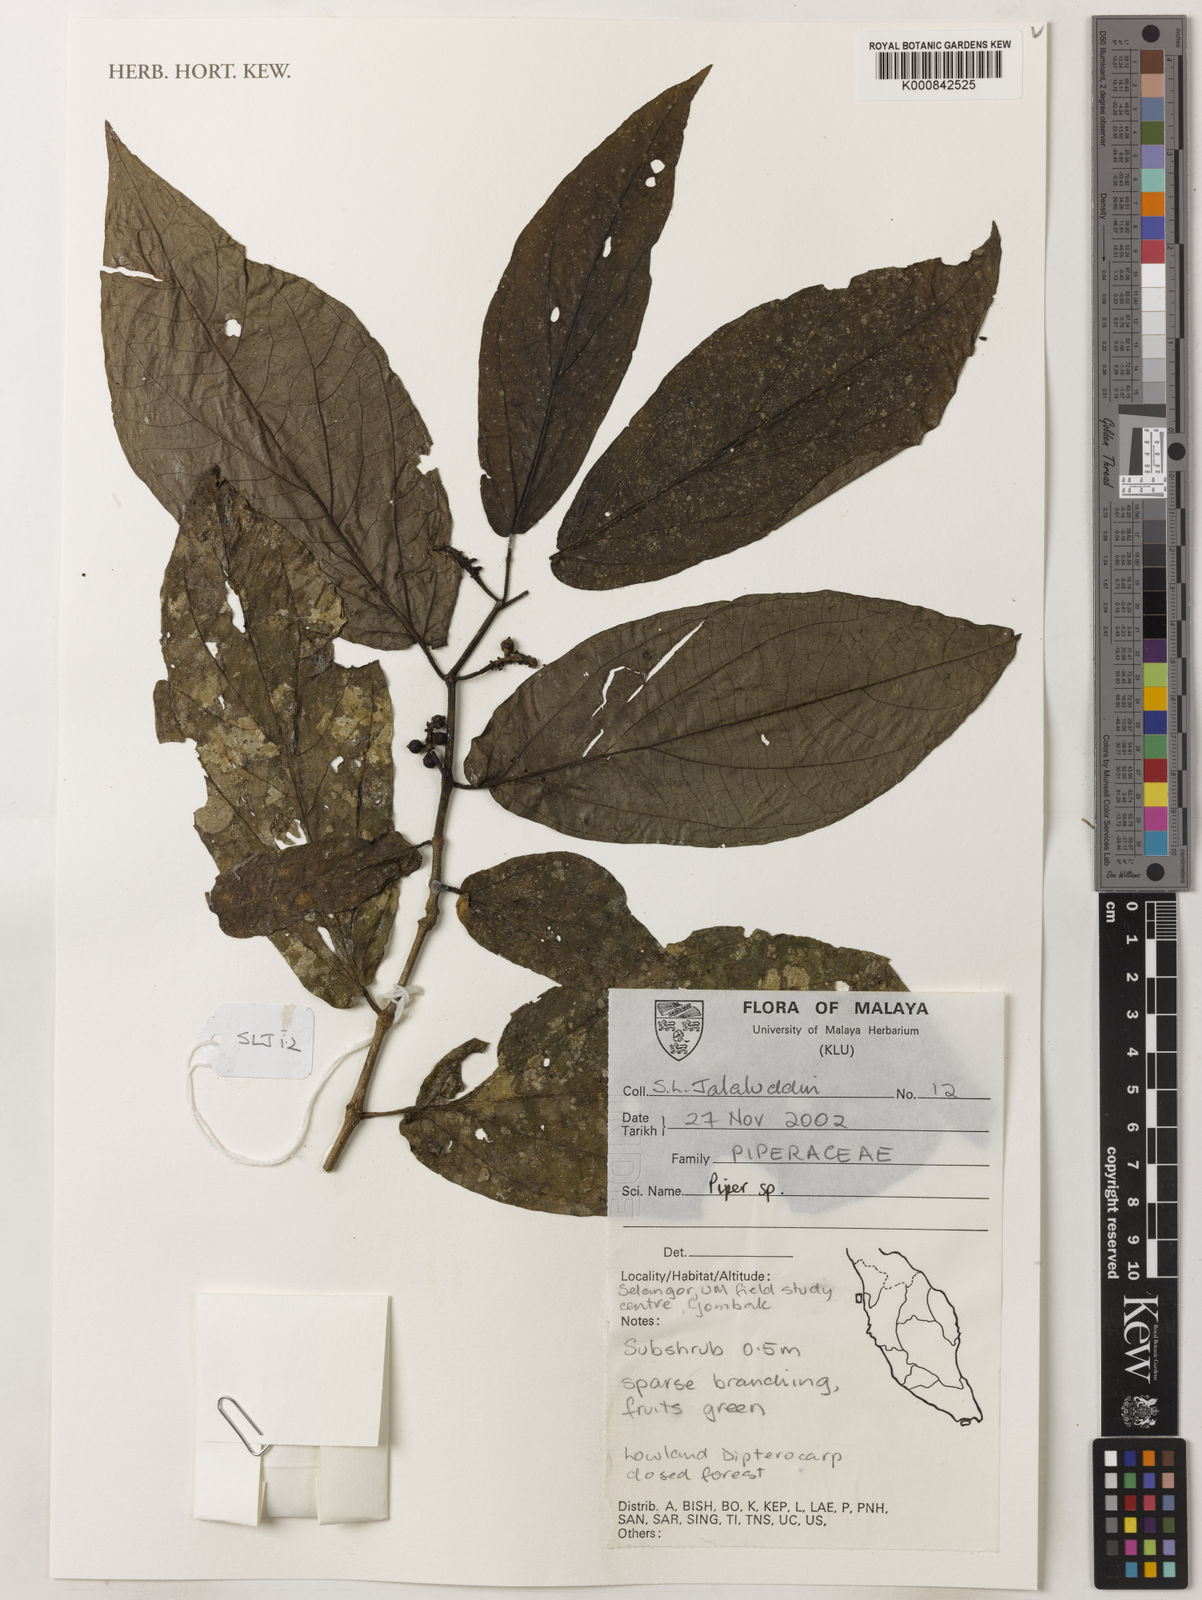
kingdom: Plantae
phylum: Tracheophyta
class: Magnoliopsida
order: Piperales
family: Piperaceae
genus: Piper
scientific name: Piper
